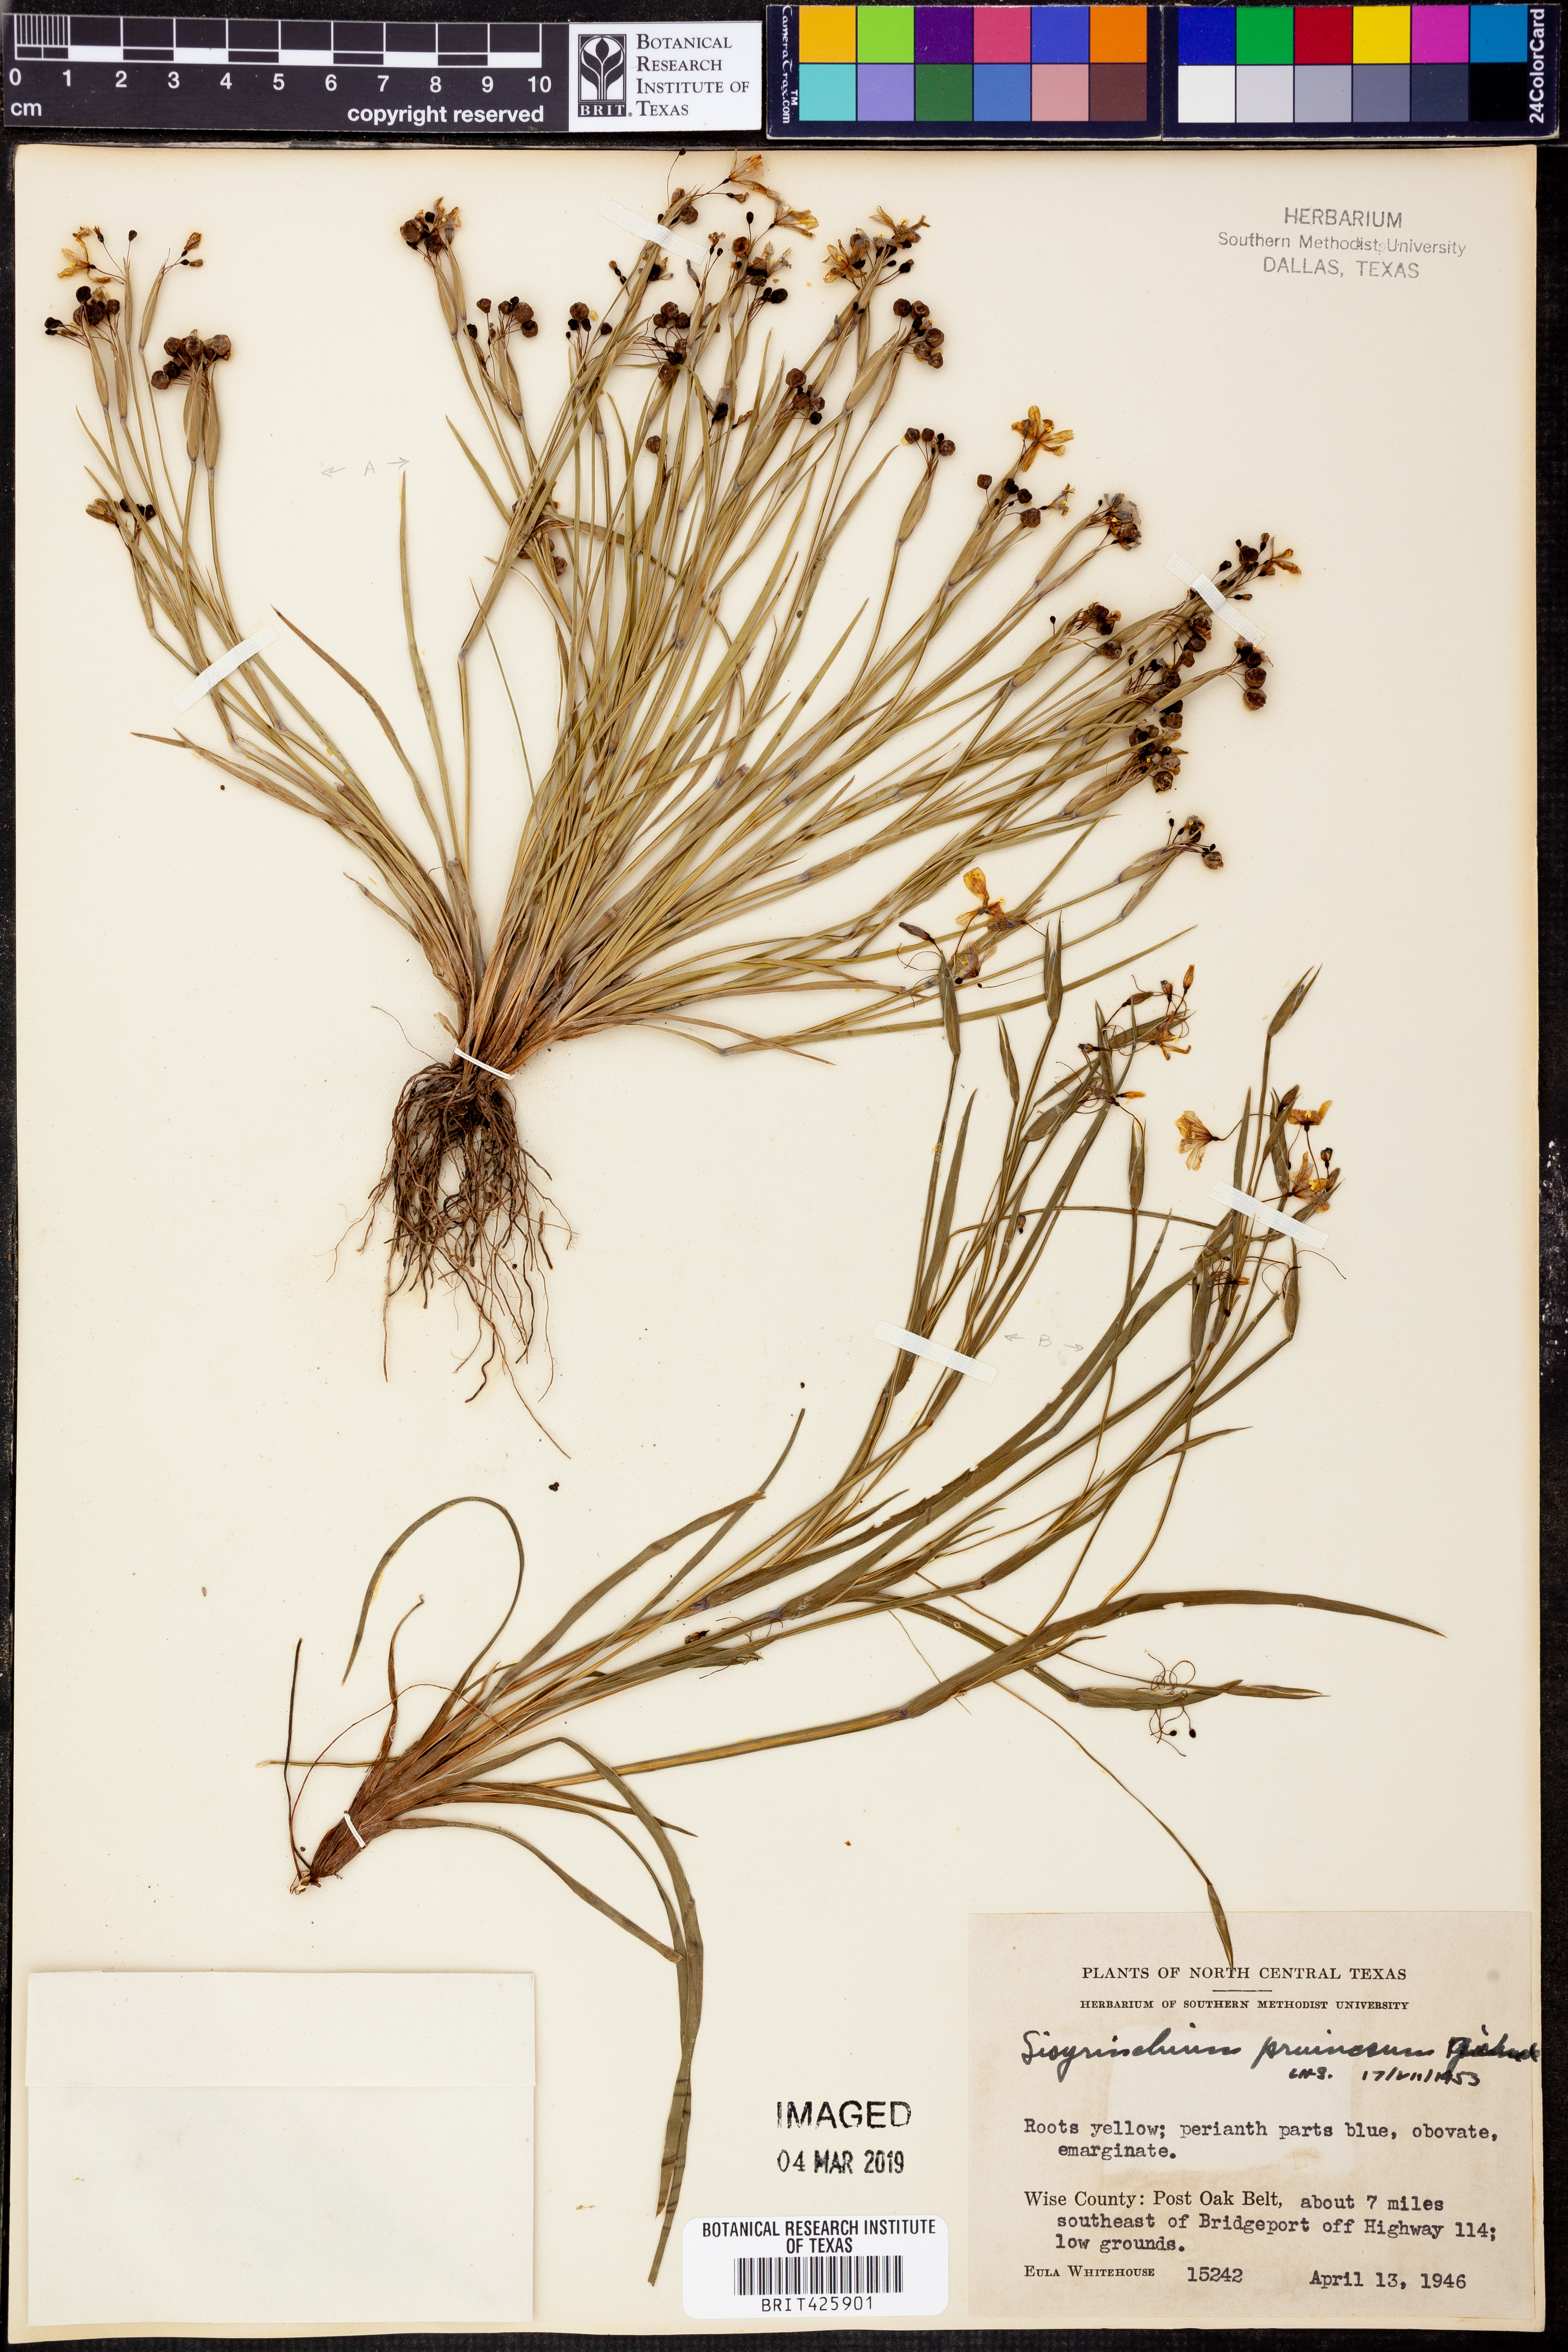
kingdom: Plantae
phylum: Tracheophyta
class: Liliopsida
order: Asparagales
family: Iridaceae
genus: Sisyrinchium
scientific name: Sisyrinchium pruinosum
